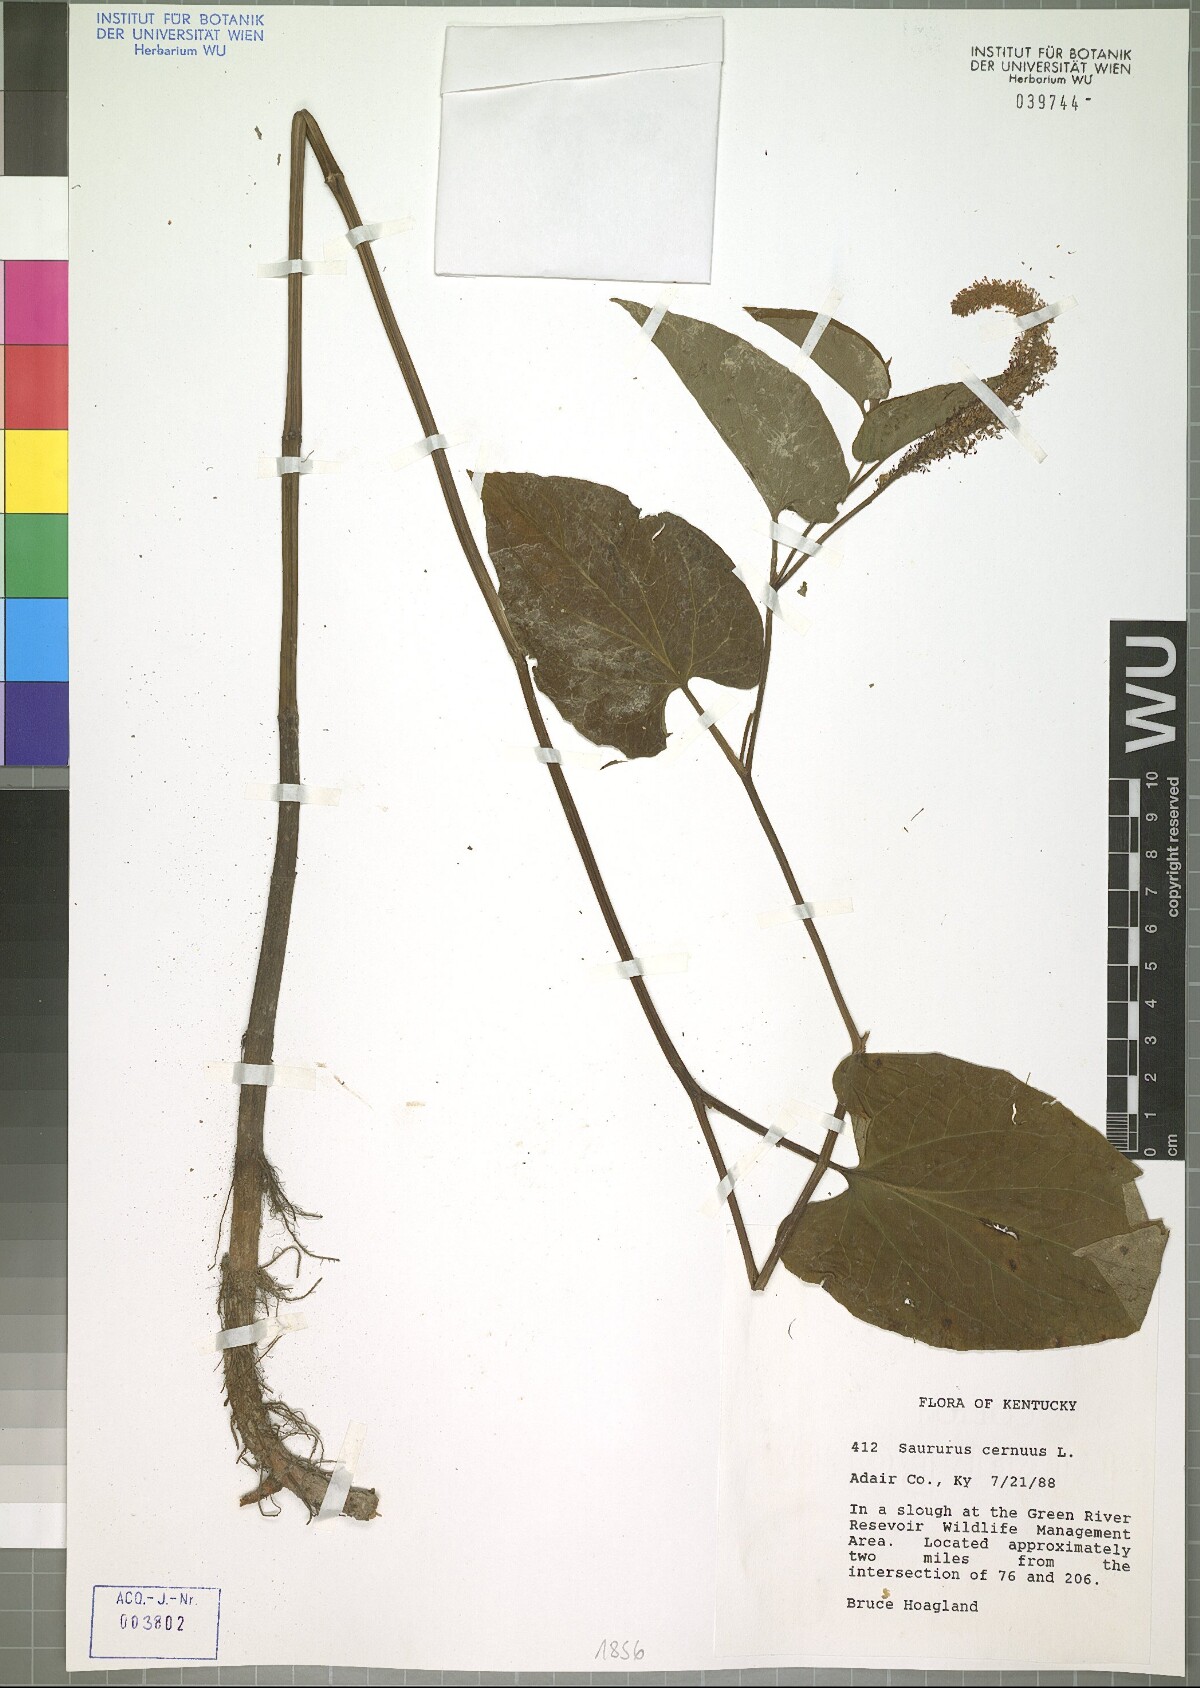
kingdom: Plantae
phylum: Tracheophyta
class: Magnoliopsida
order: Piperales
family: Saururaceae
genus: Saururus
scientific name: Saururus cernuus
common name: Lizard's-tail
